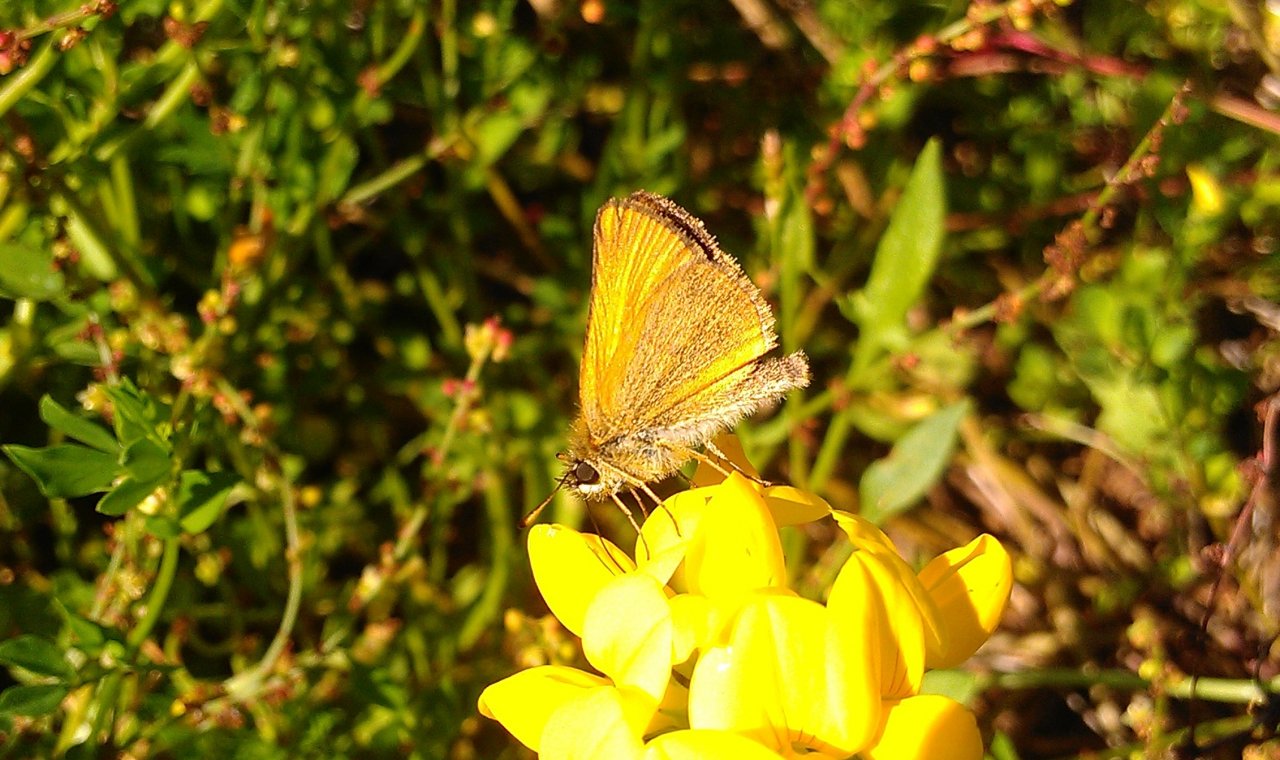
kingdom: Animalia
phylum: Arthropoda
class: Insecta
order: Lepidoptera
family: Hesperiidae
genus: Thymelicus
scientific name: Thymelicus lineola
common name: European Skipper
